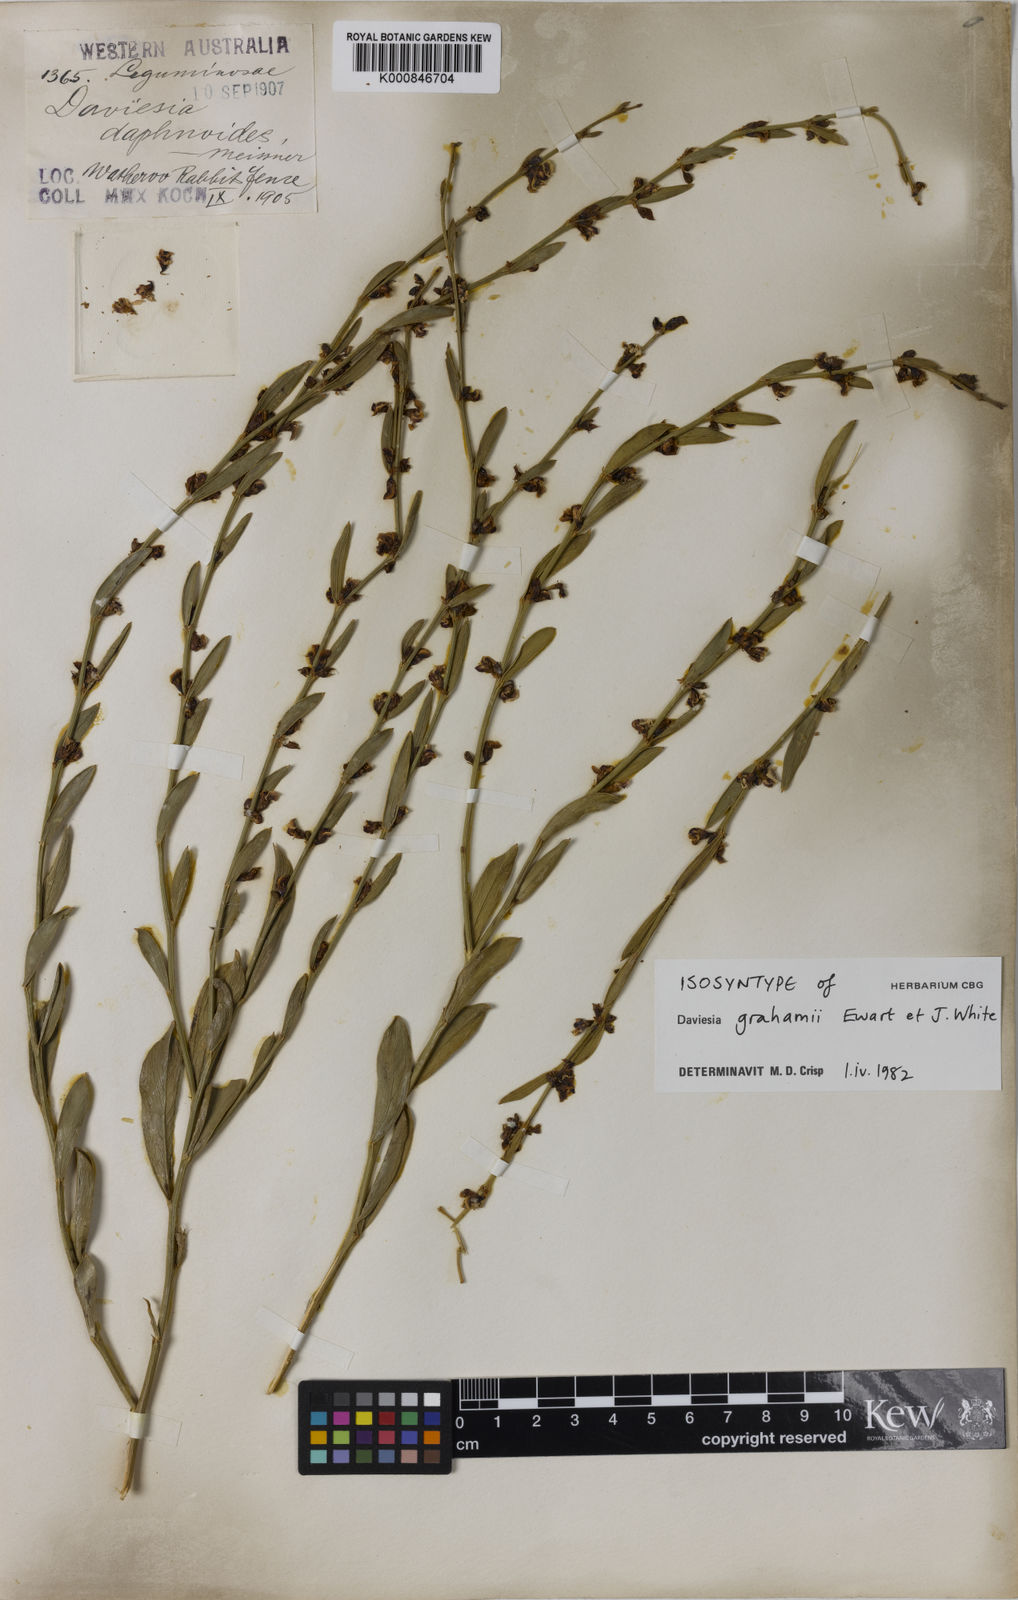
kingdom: Plantae
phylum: Tracheophyta
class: Magnoliopsida
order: Fabales
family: Fabaceae
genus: Daviesia
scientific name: Daviesia grahamii
